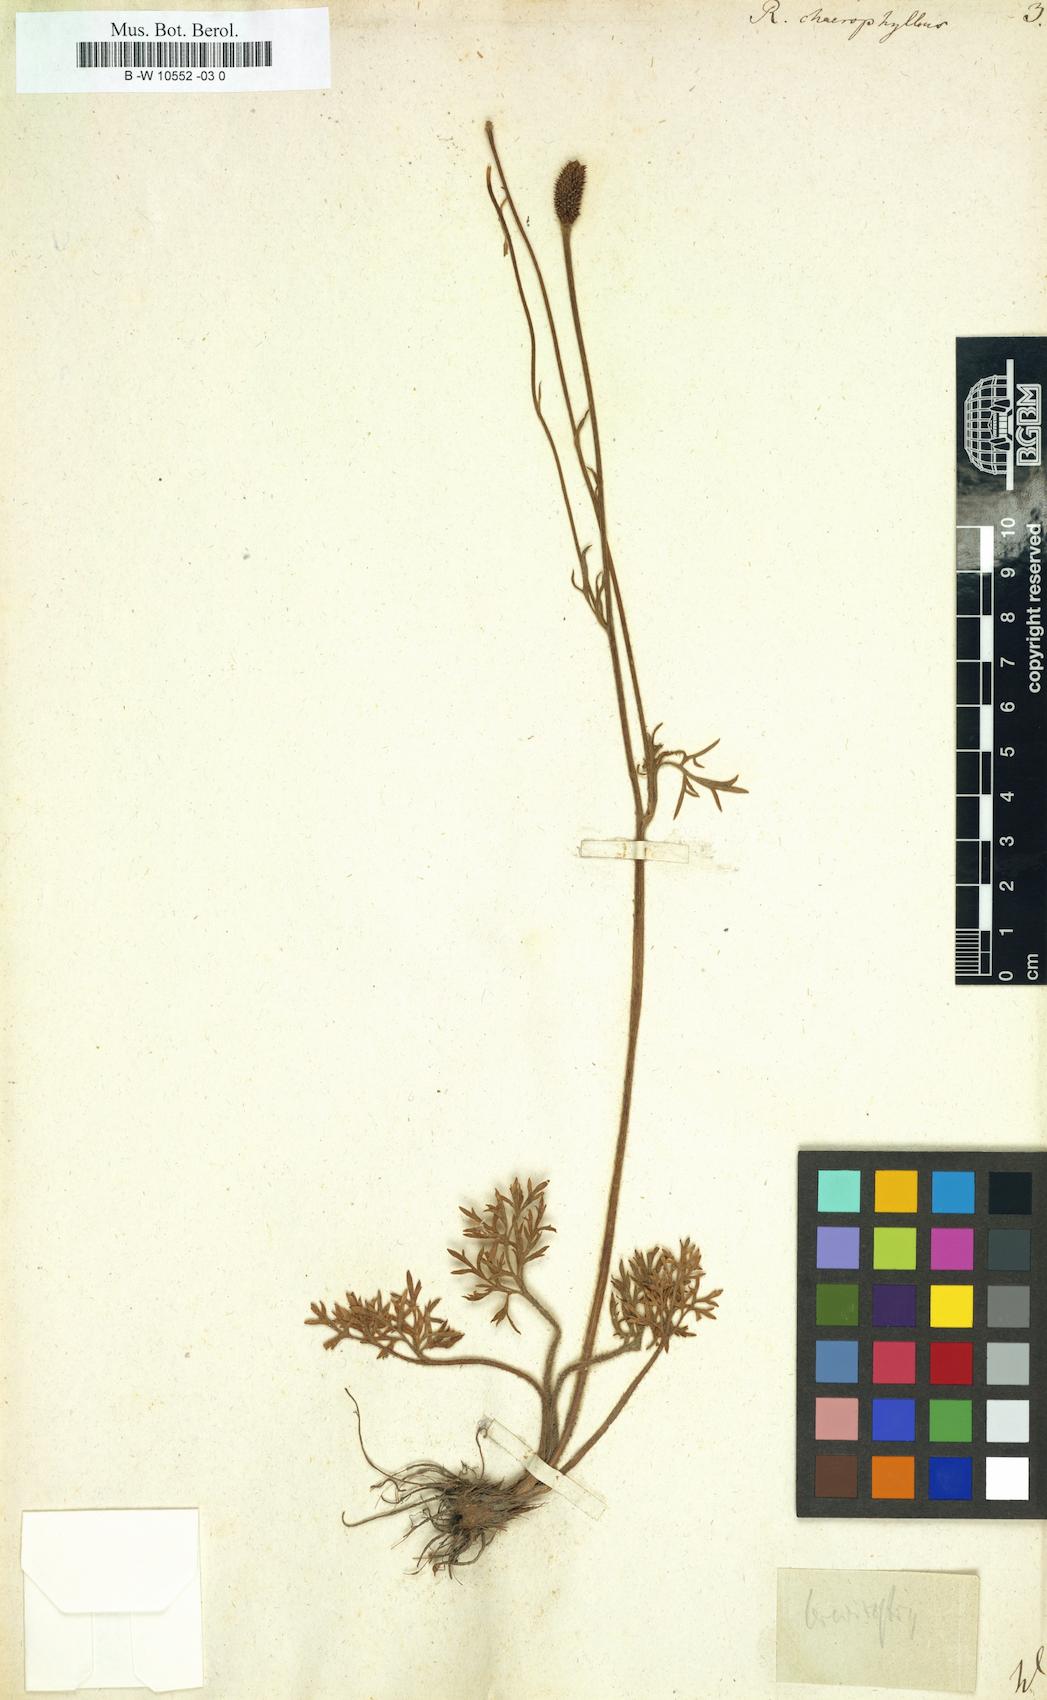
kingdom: Plantae
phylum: Tracheophyta
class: Magnoliopsida
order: Ranunculales
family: Ranunculaceae
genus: Ranunculus
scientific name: Ranunculus chaerophyllos
